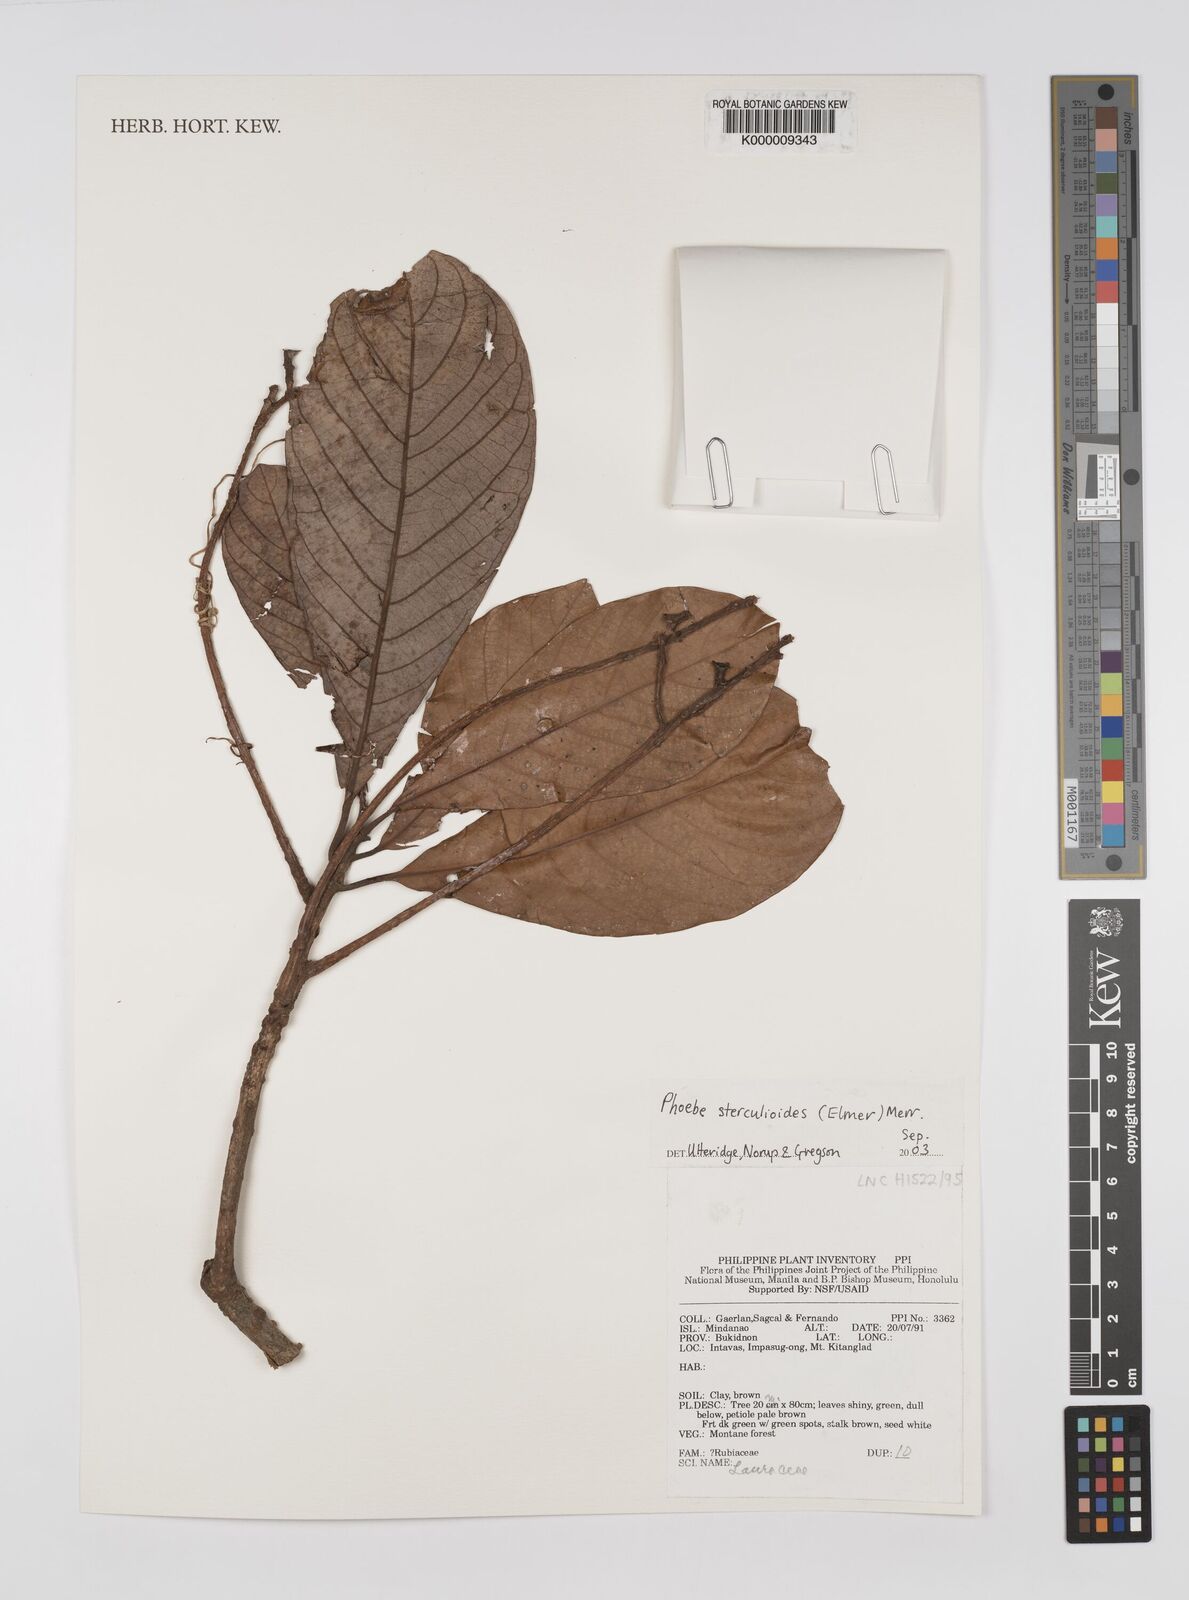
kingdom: Plantae
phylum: Tracheophyta
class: Magnoliopsida
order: Laurales
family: Lauraceae
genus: Phoebe
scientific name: Phoebe sterculioides
